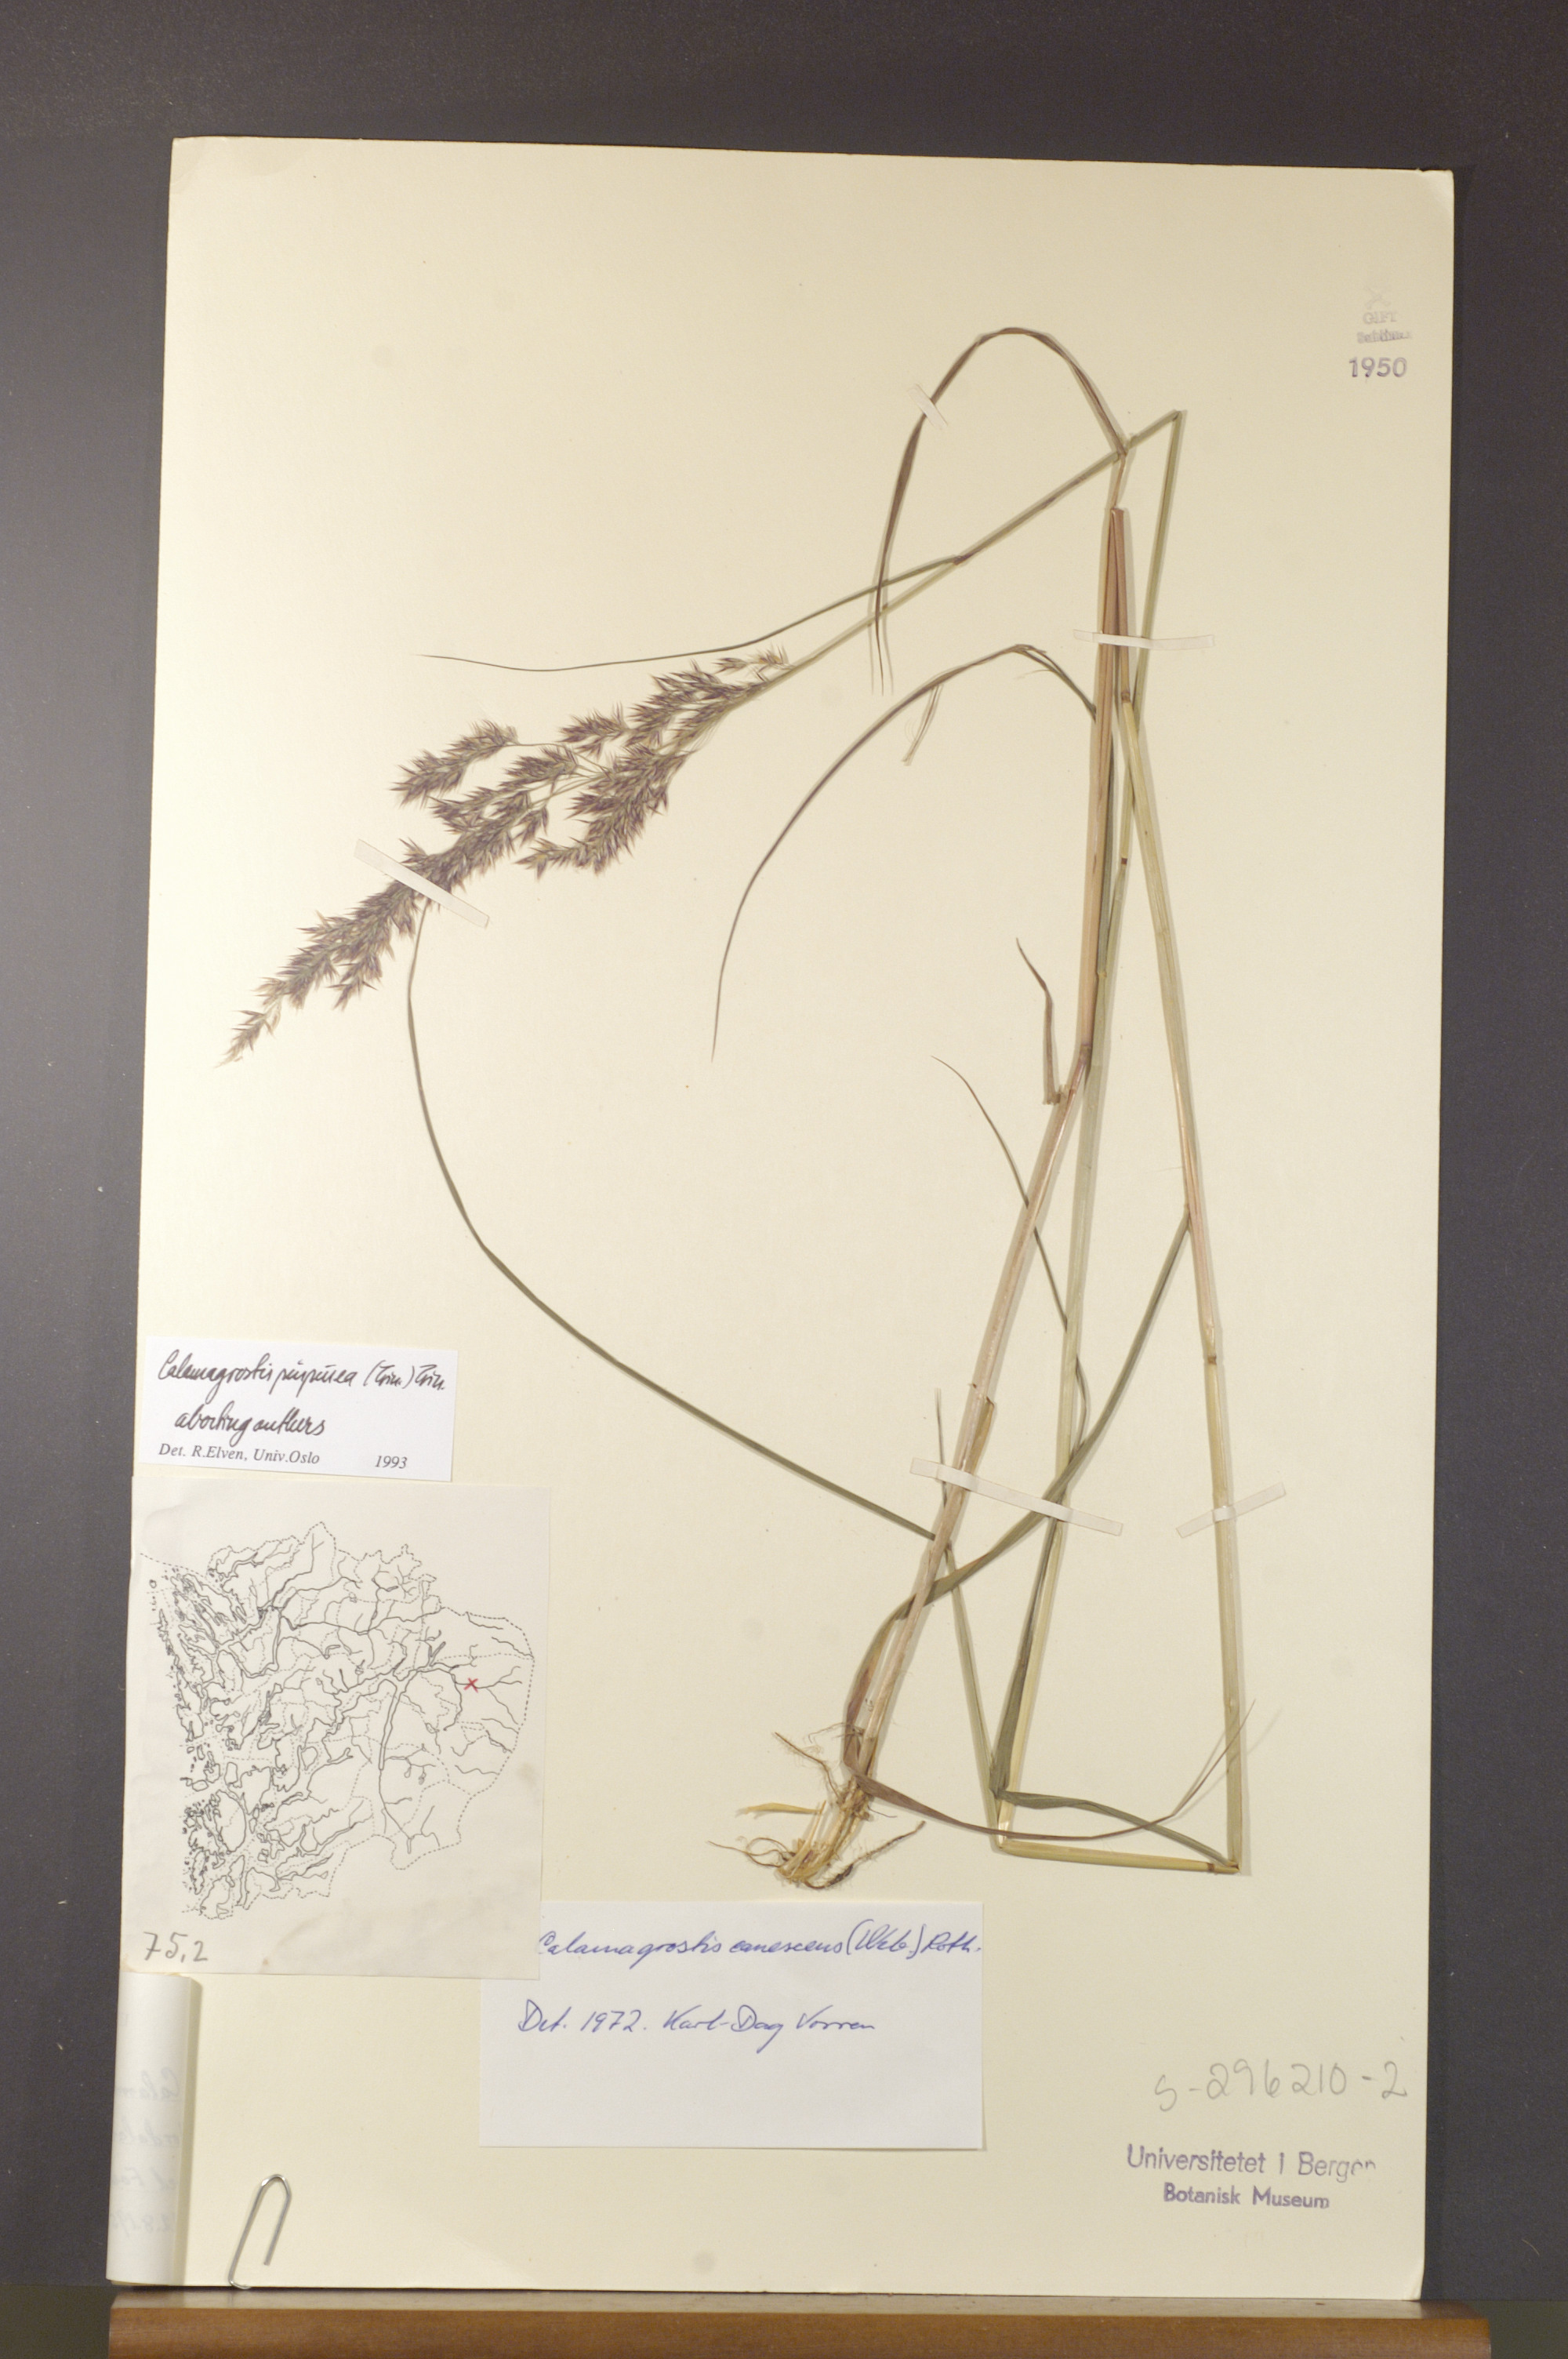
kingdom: Plantae
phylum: Tracheophyta
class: Liliopsida
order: Poales
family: Poaceae
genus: Calamagrostis
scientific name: Calamagrostis purpurea
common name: Scandinavian small-reed
